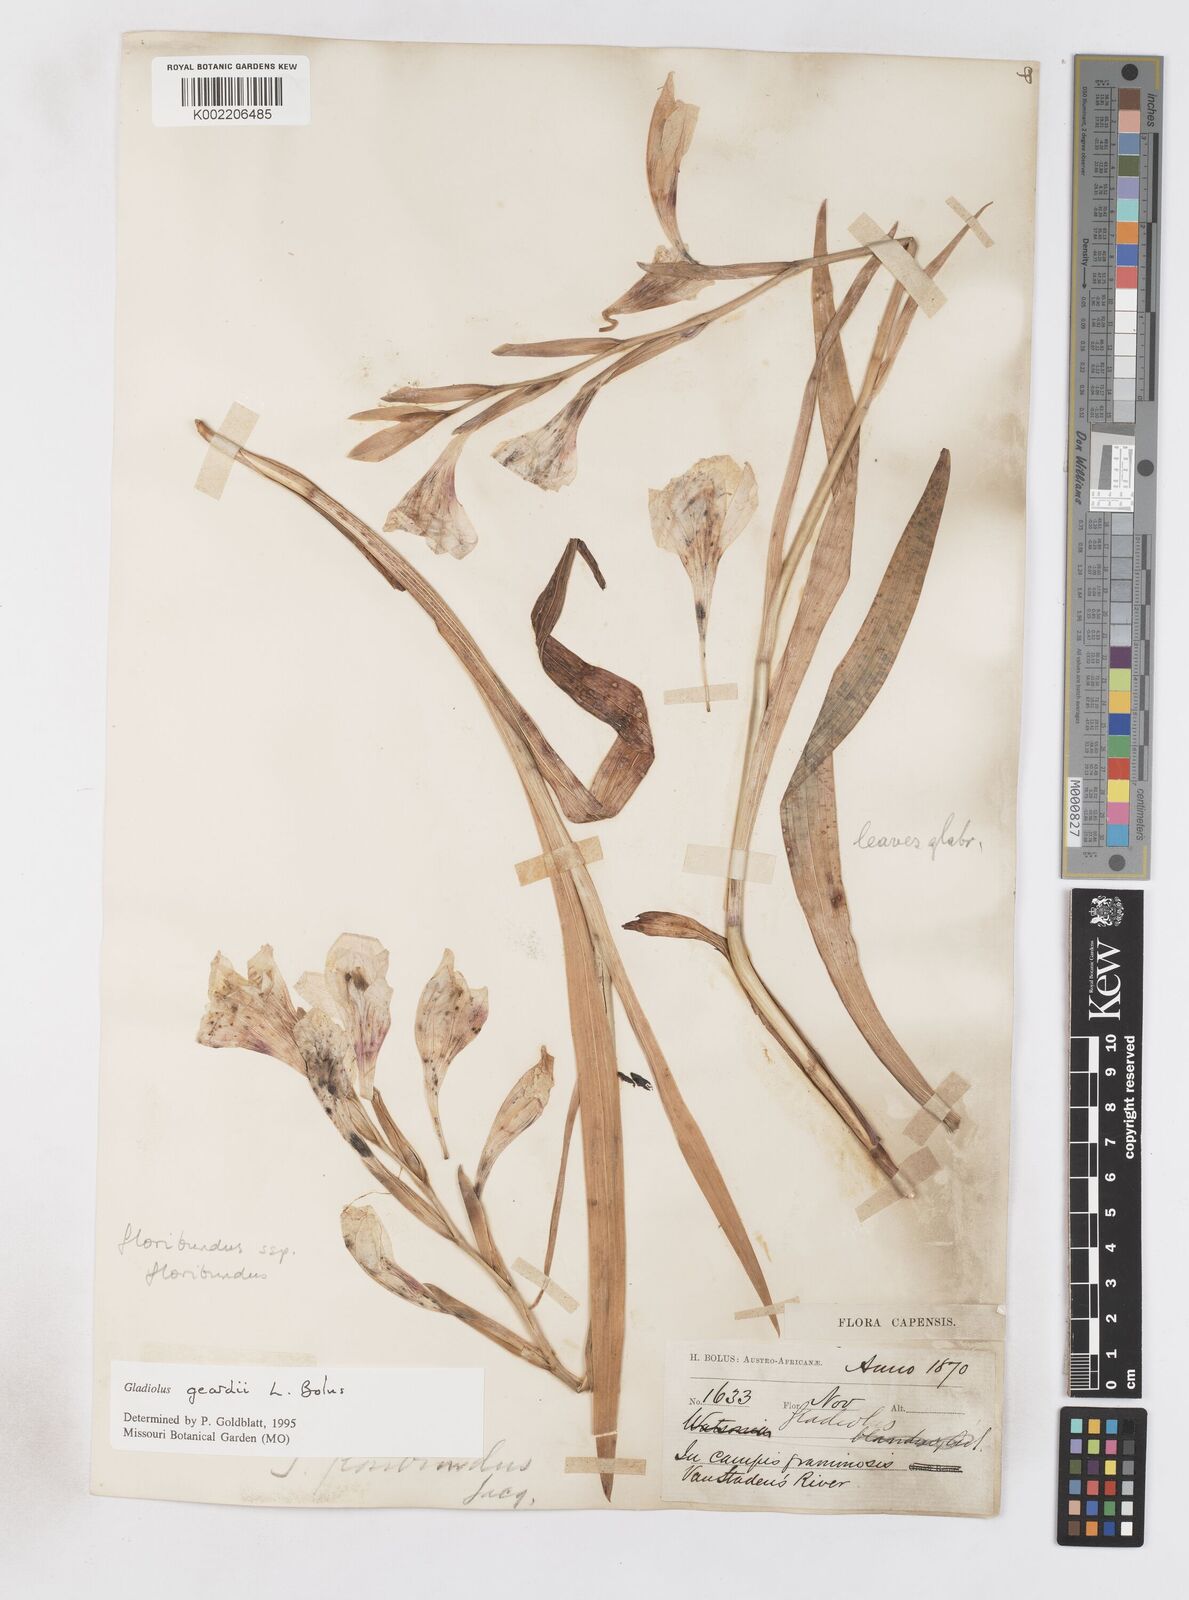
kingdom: Plantae
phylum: Tracheophyta
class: Liliopsida
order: Asparagales
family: Iridaceae
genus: Gladiolus
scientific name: Gladiolus geardii
